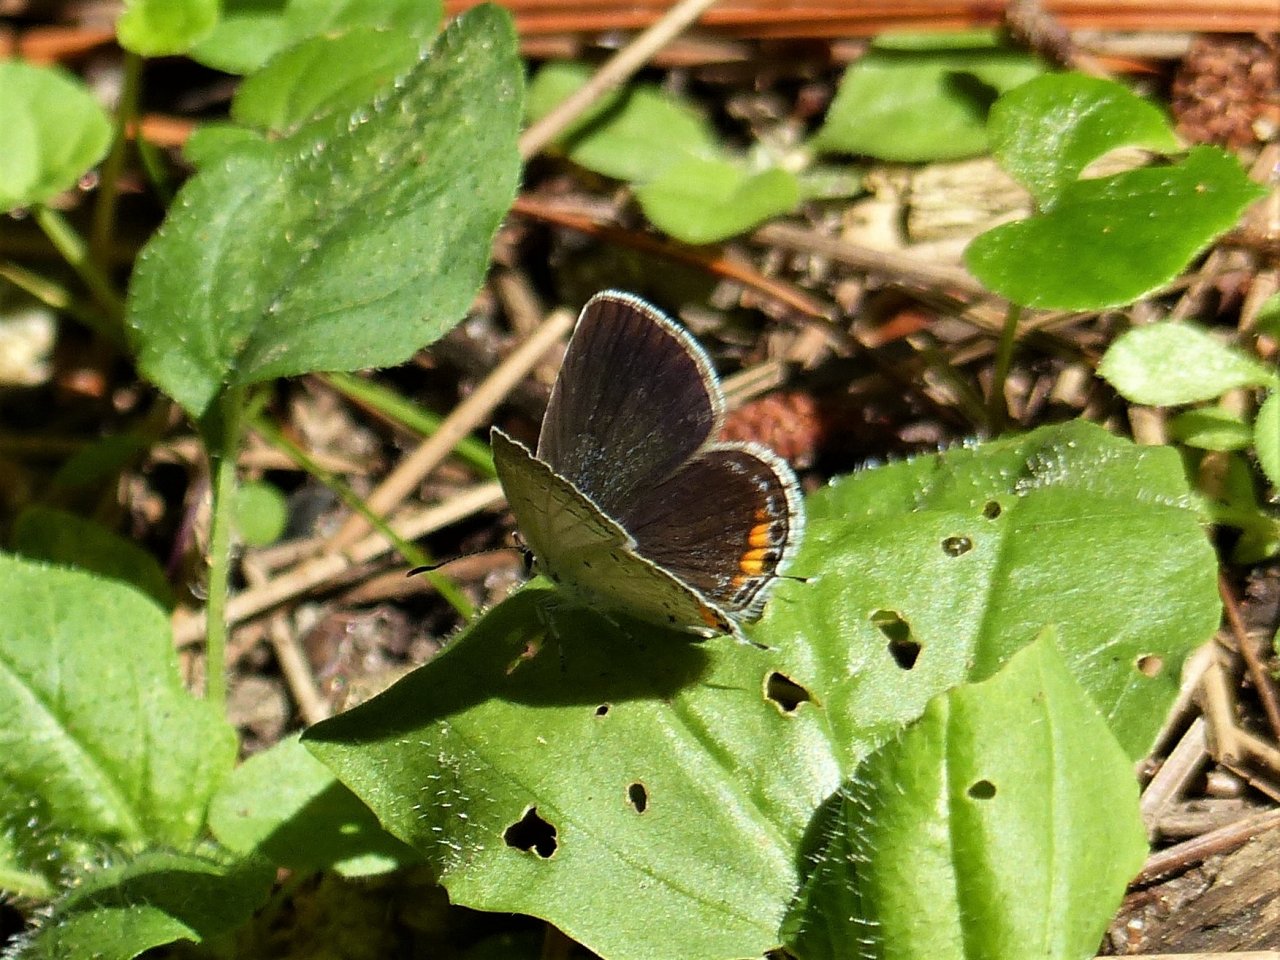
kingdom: Animalia
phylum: Arthropoda
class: Insecta
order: Lepidoptera
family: Lycaenidae
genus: Elkalyce
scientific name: Elkalyce comyntas
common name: Eastern Tailed-Blue
